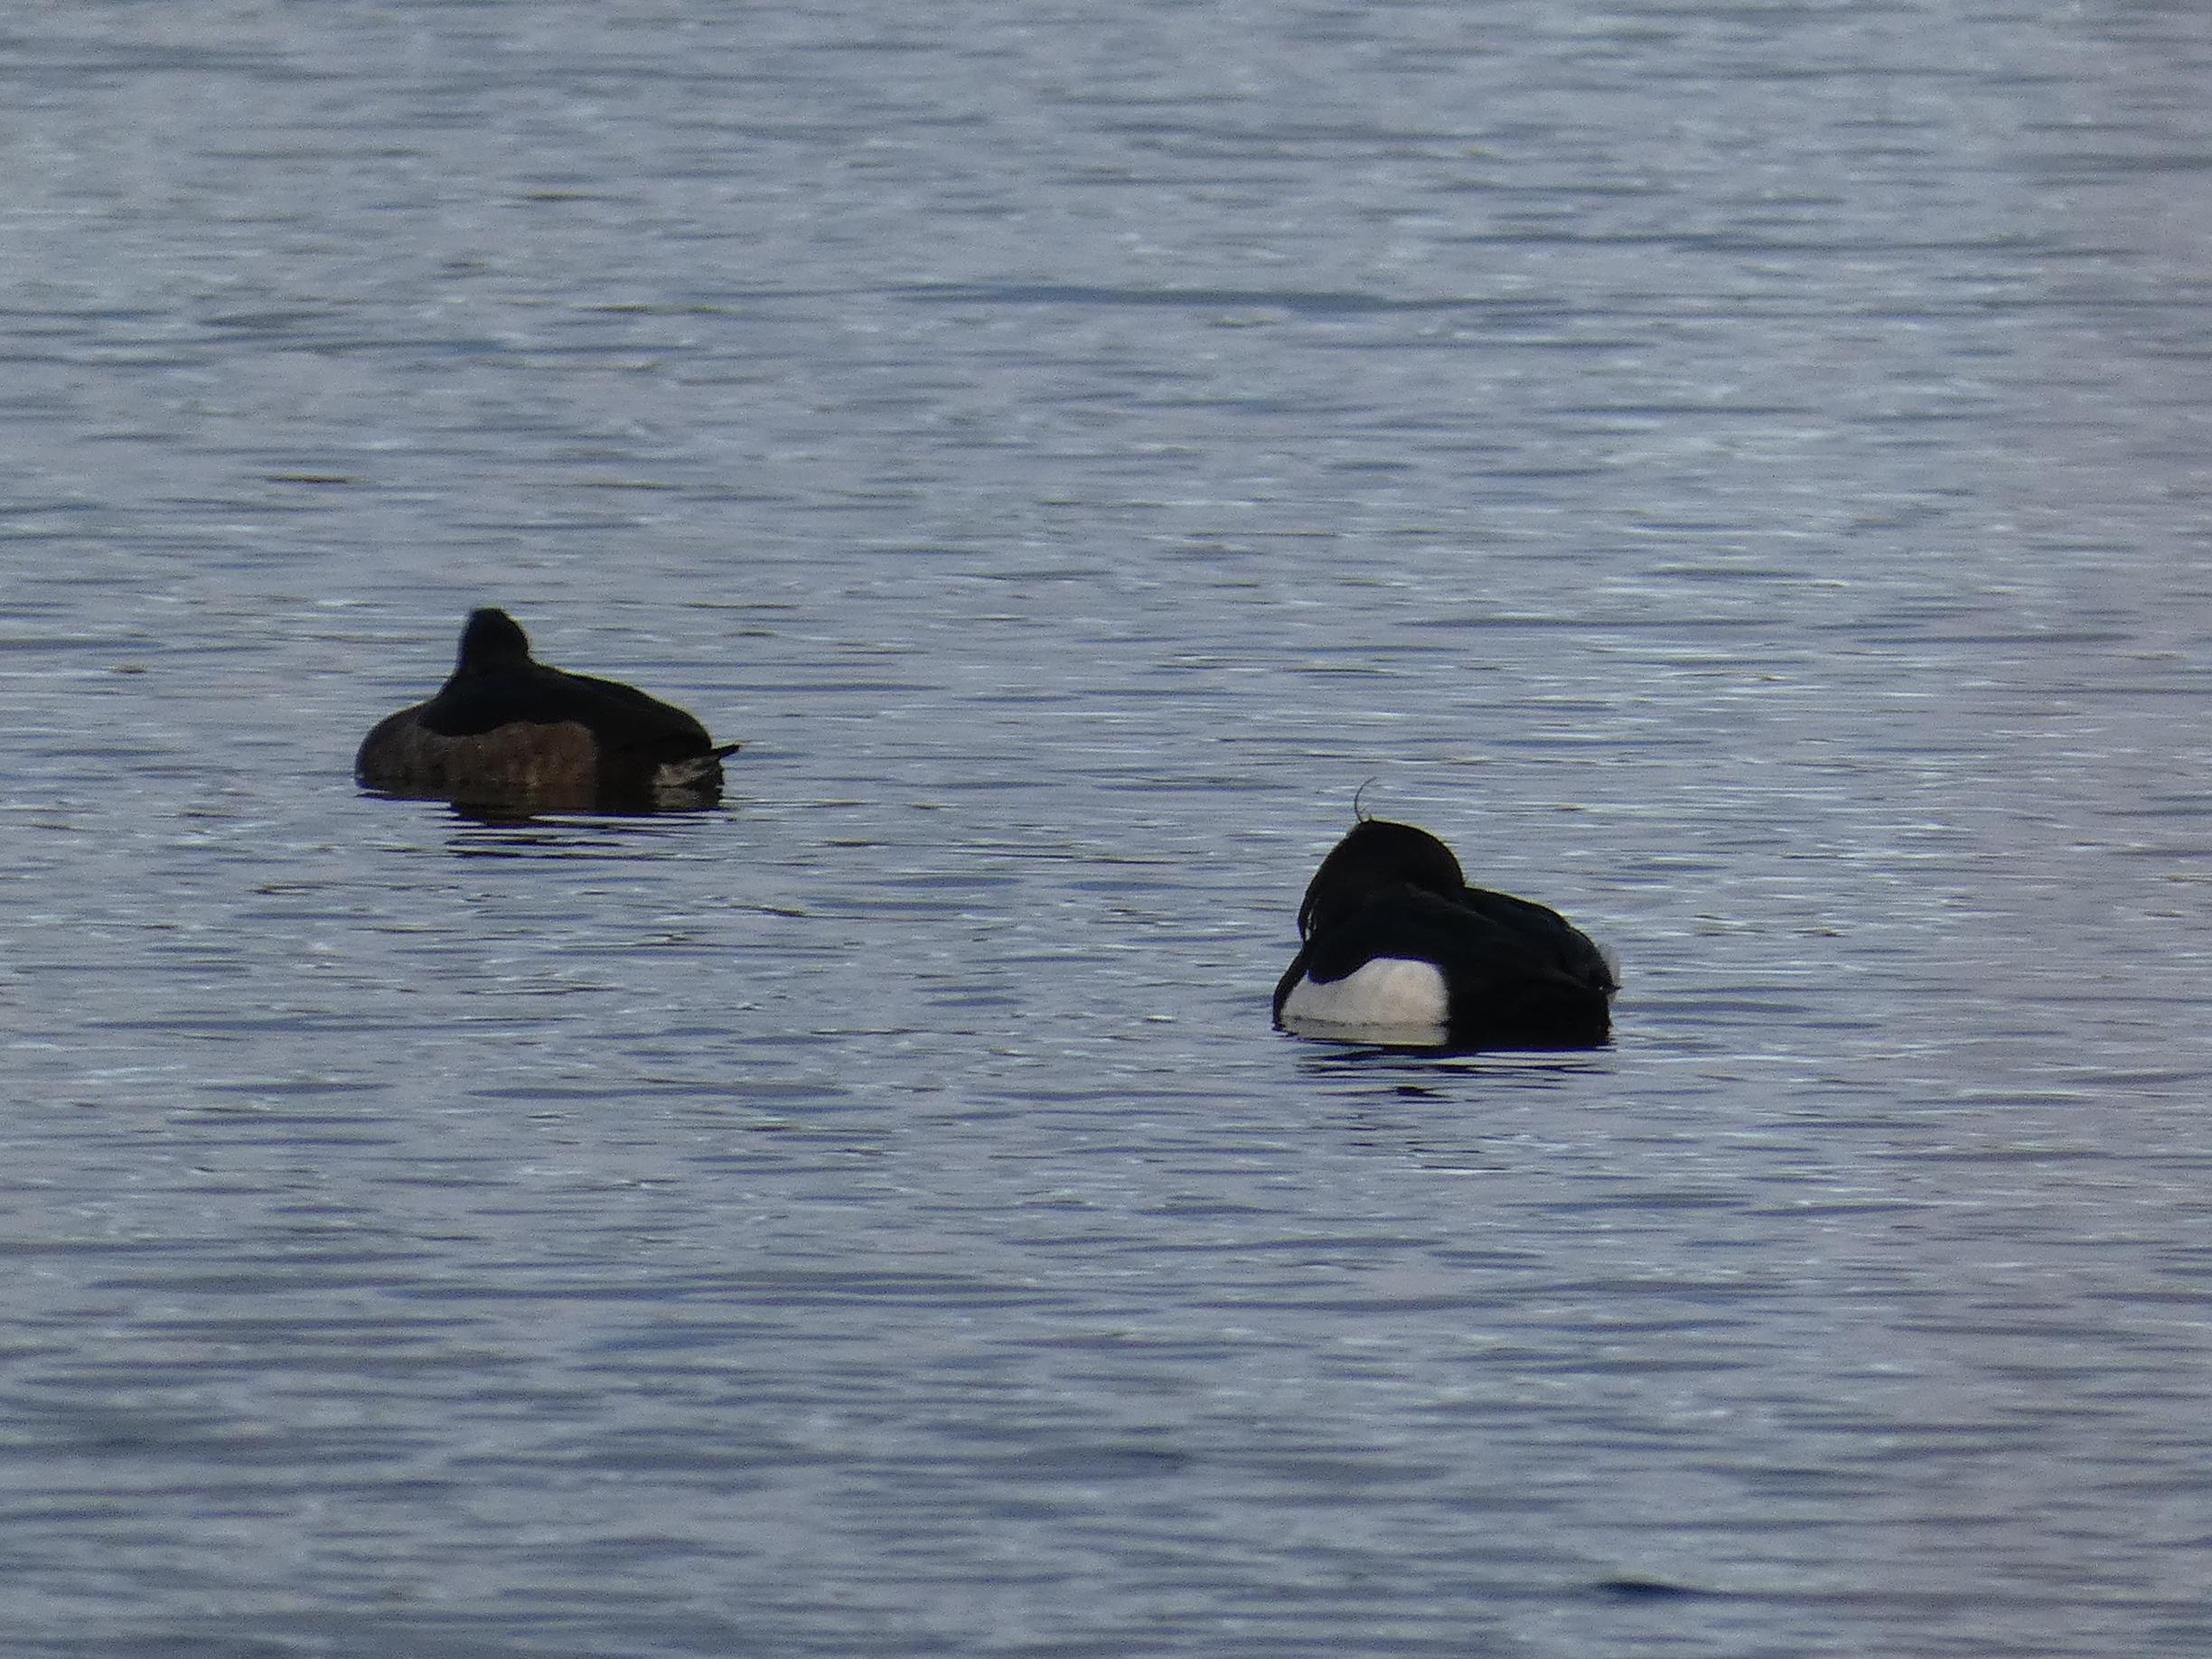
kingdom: Animalia
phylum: Chordata
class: Aves
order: Anseriformes
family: Anatidae
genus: Aythya
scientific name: Aythya fuligula
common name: Troldand
